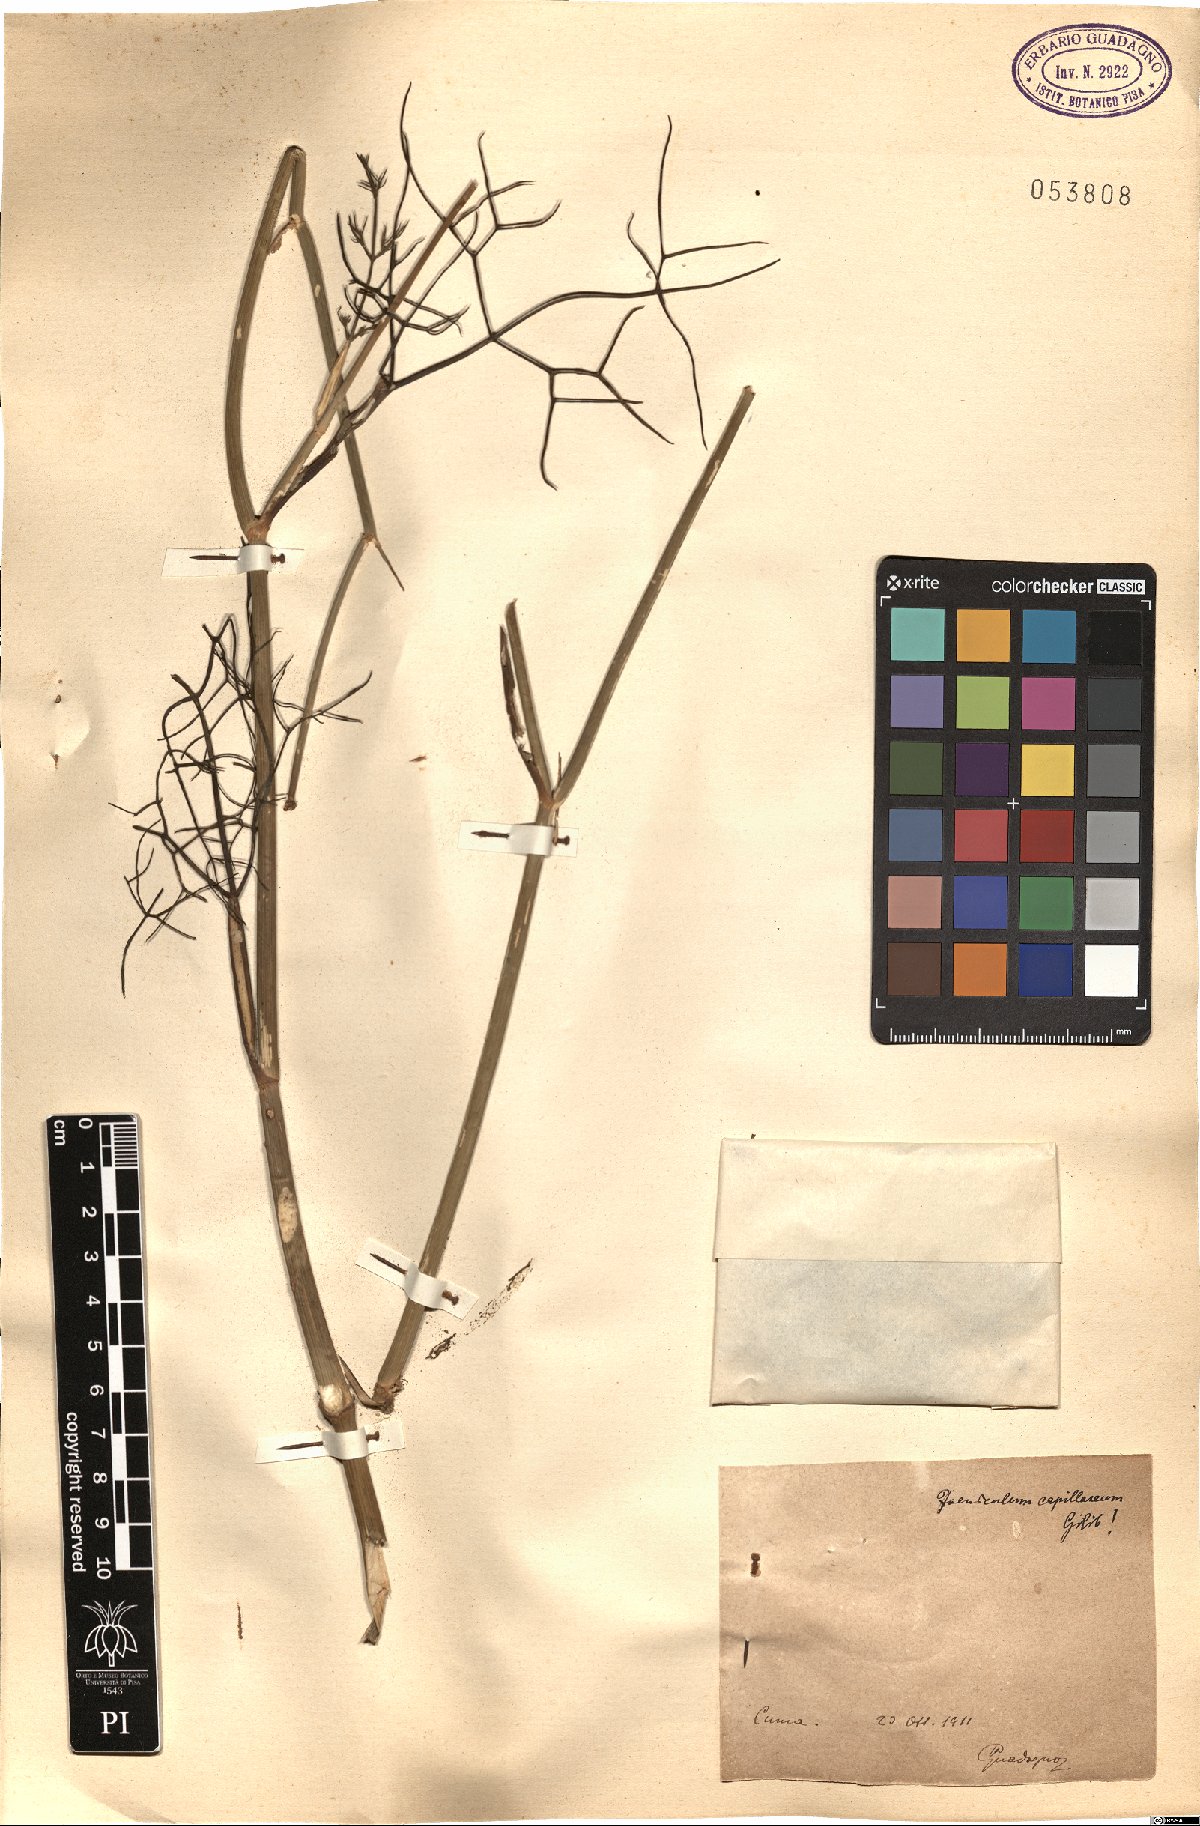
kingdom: Plantae
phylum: Tracheophyta
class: Magnoliopsida
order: Apiales
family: Apiaceae
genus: Foeniculum
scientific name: Foeniculum vulgare
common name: Fennel
